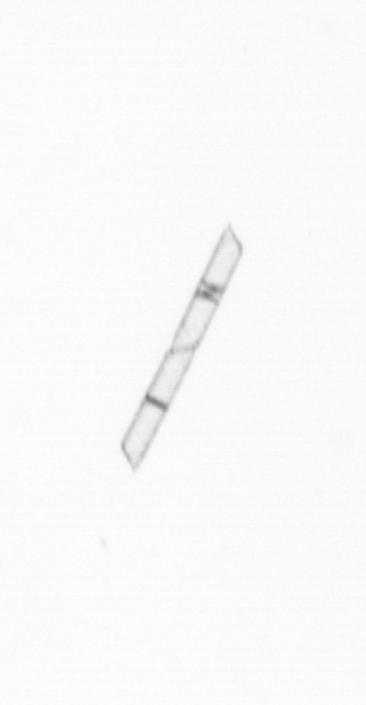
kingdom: Chromista
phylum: Ochrophyta
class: Bacillariophyceae
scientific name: Bacillariophyceae
